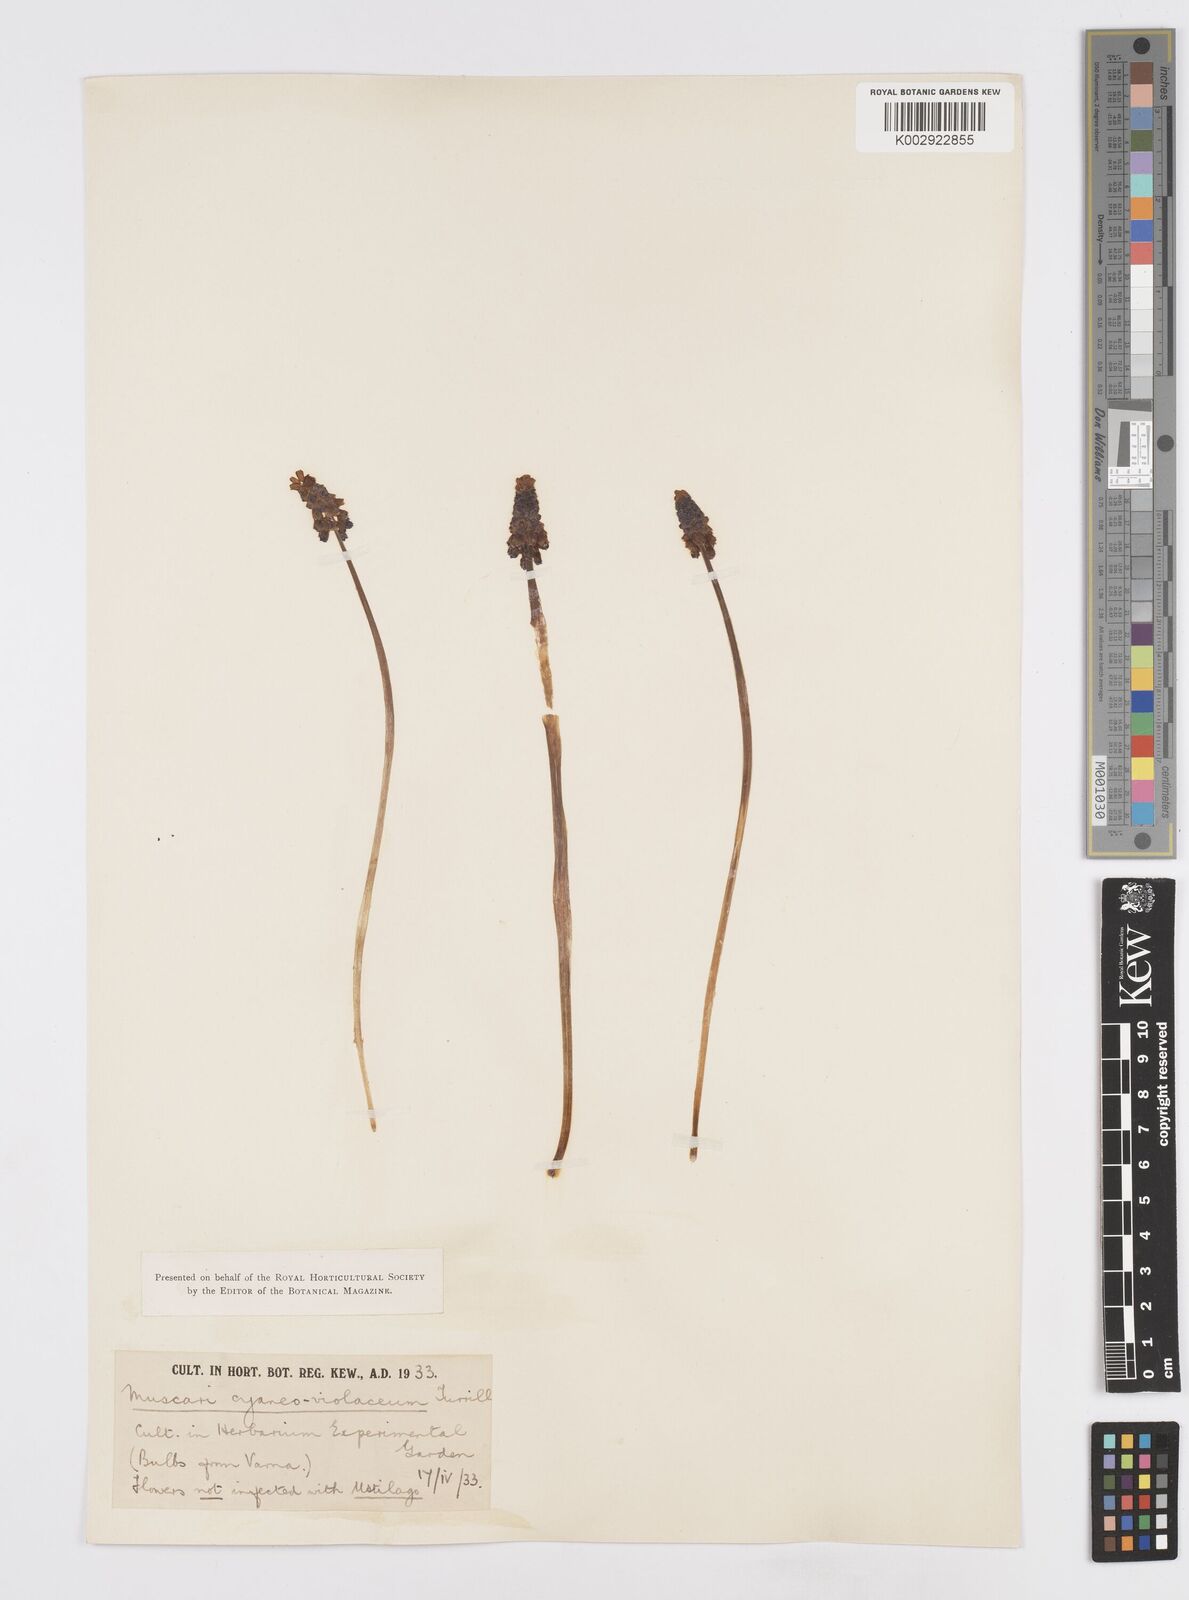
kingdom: Plantae
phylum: Tracheophyta
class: Liliopsida
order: Asparagales
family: Asparagaceae
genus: Muscari
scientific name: Muscari armeniacum
